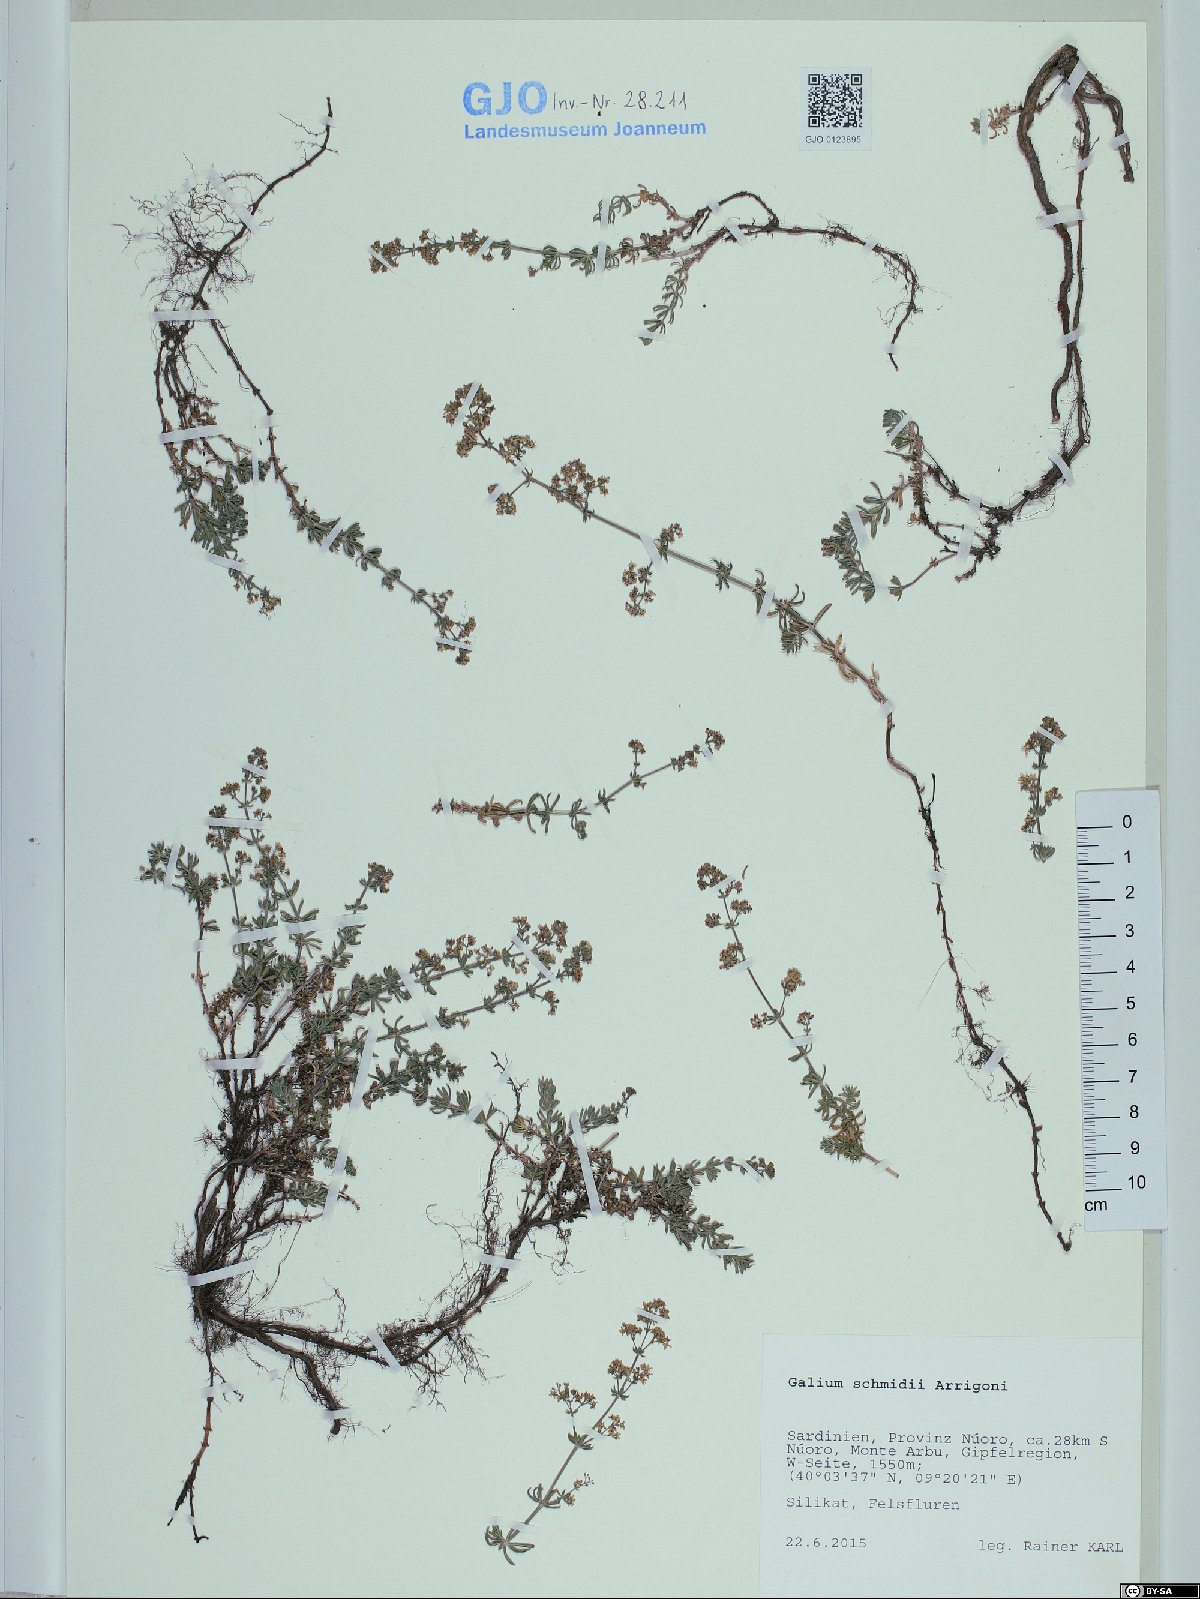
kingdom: Plantae
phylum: Tracheophyta
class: Magnoliopsida
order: Gentianales
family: Rubiaceae
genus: Galium
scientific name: Galium schmidii
